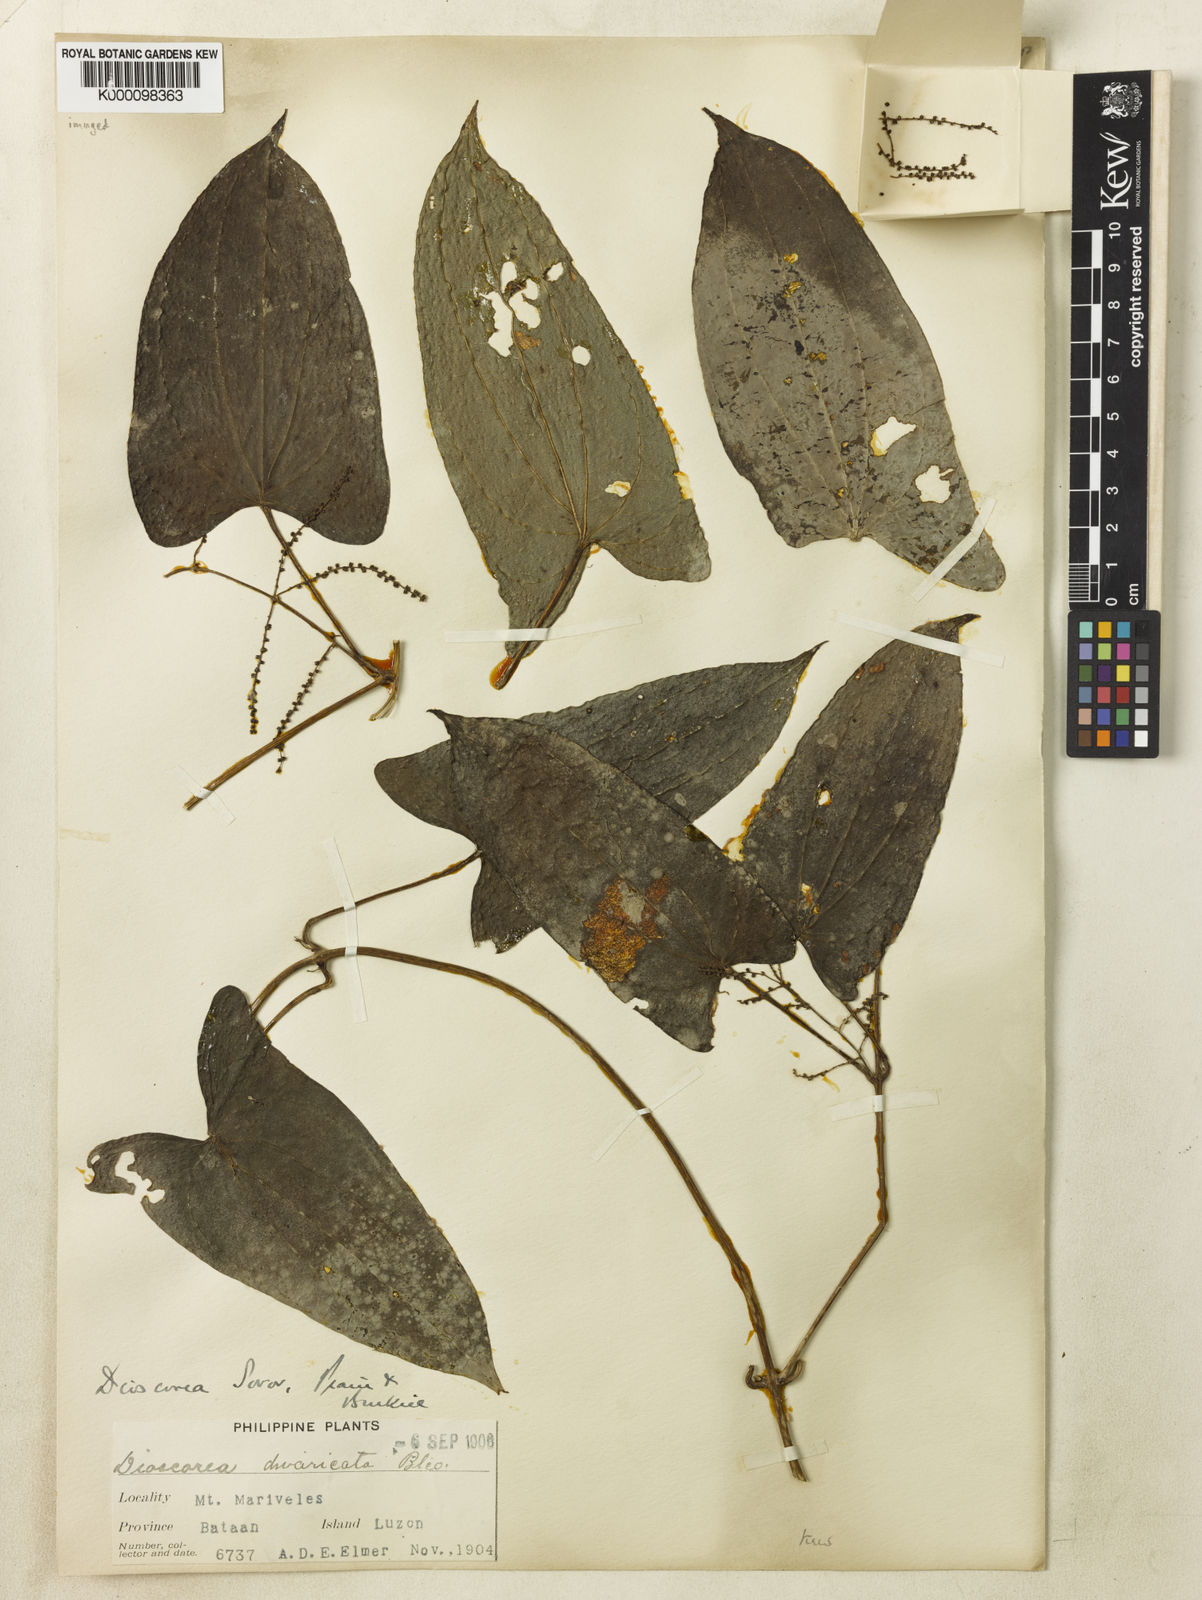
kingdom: Plantae
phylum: Tracheophyta
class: Liliopsida
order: Dioscoreales
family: Dioscoreaceae
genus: Dioscorea
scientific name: Dioscorea divaricata
